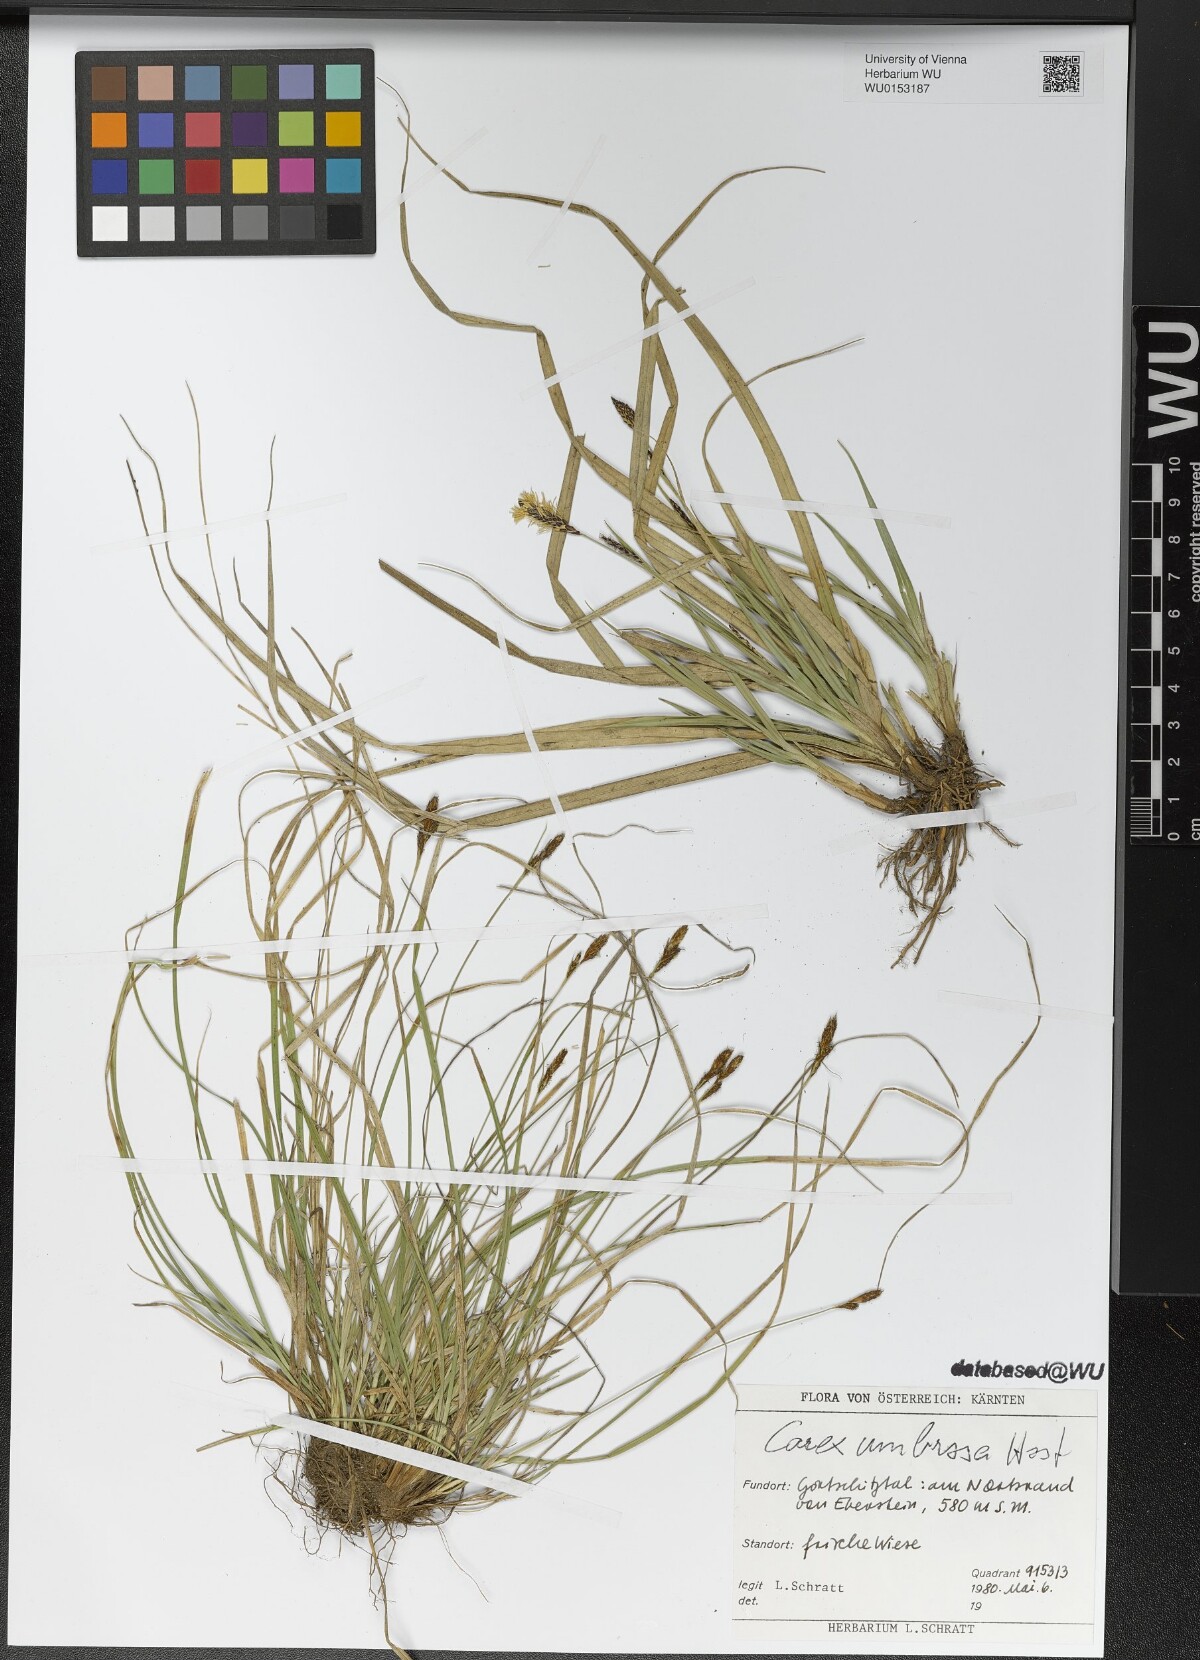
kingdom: Plantae
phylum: Tracheophyta
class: Liliopsida
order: Poales
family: Cyperaceae
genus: Carex
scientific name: Carex umbrosa
